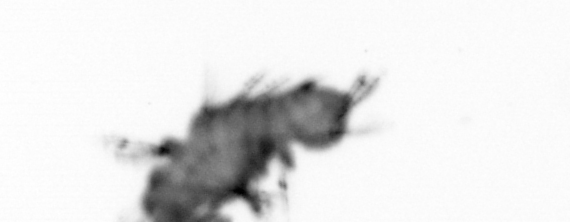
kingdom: Animalia
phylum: Annelida
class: Polychaeta
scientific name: Polychaeta
